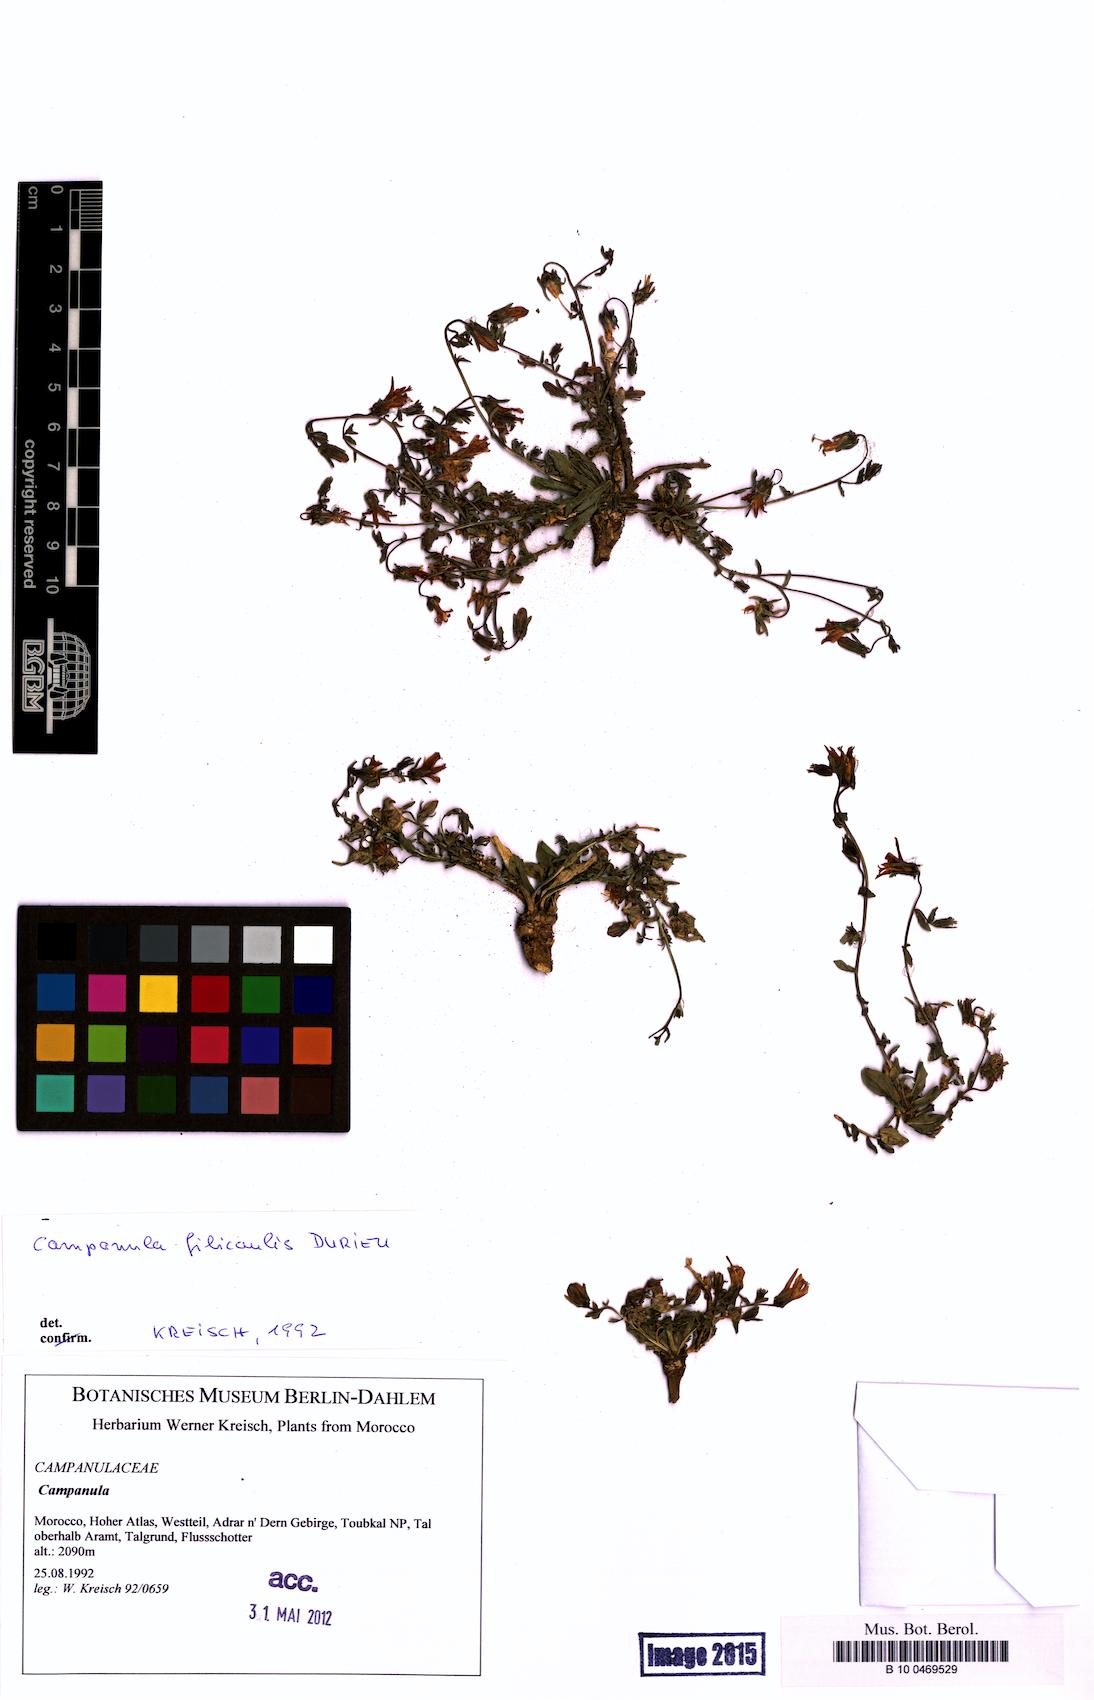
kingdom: Plantae
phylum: Tracheophyta
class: Magnoliopsida
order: Asterales
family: Campanulaceae
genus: Campanula
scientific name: Campanula filicaulis
